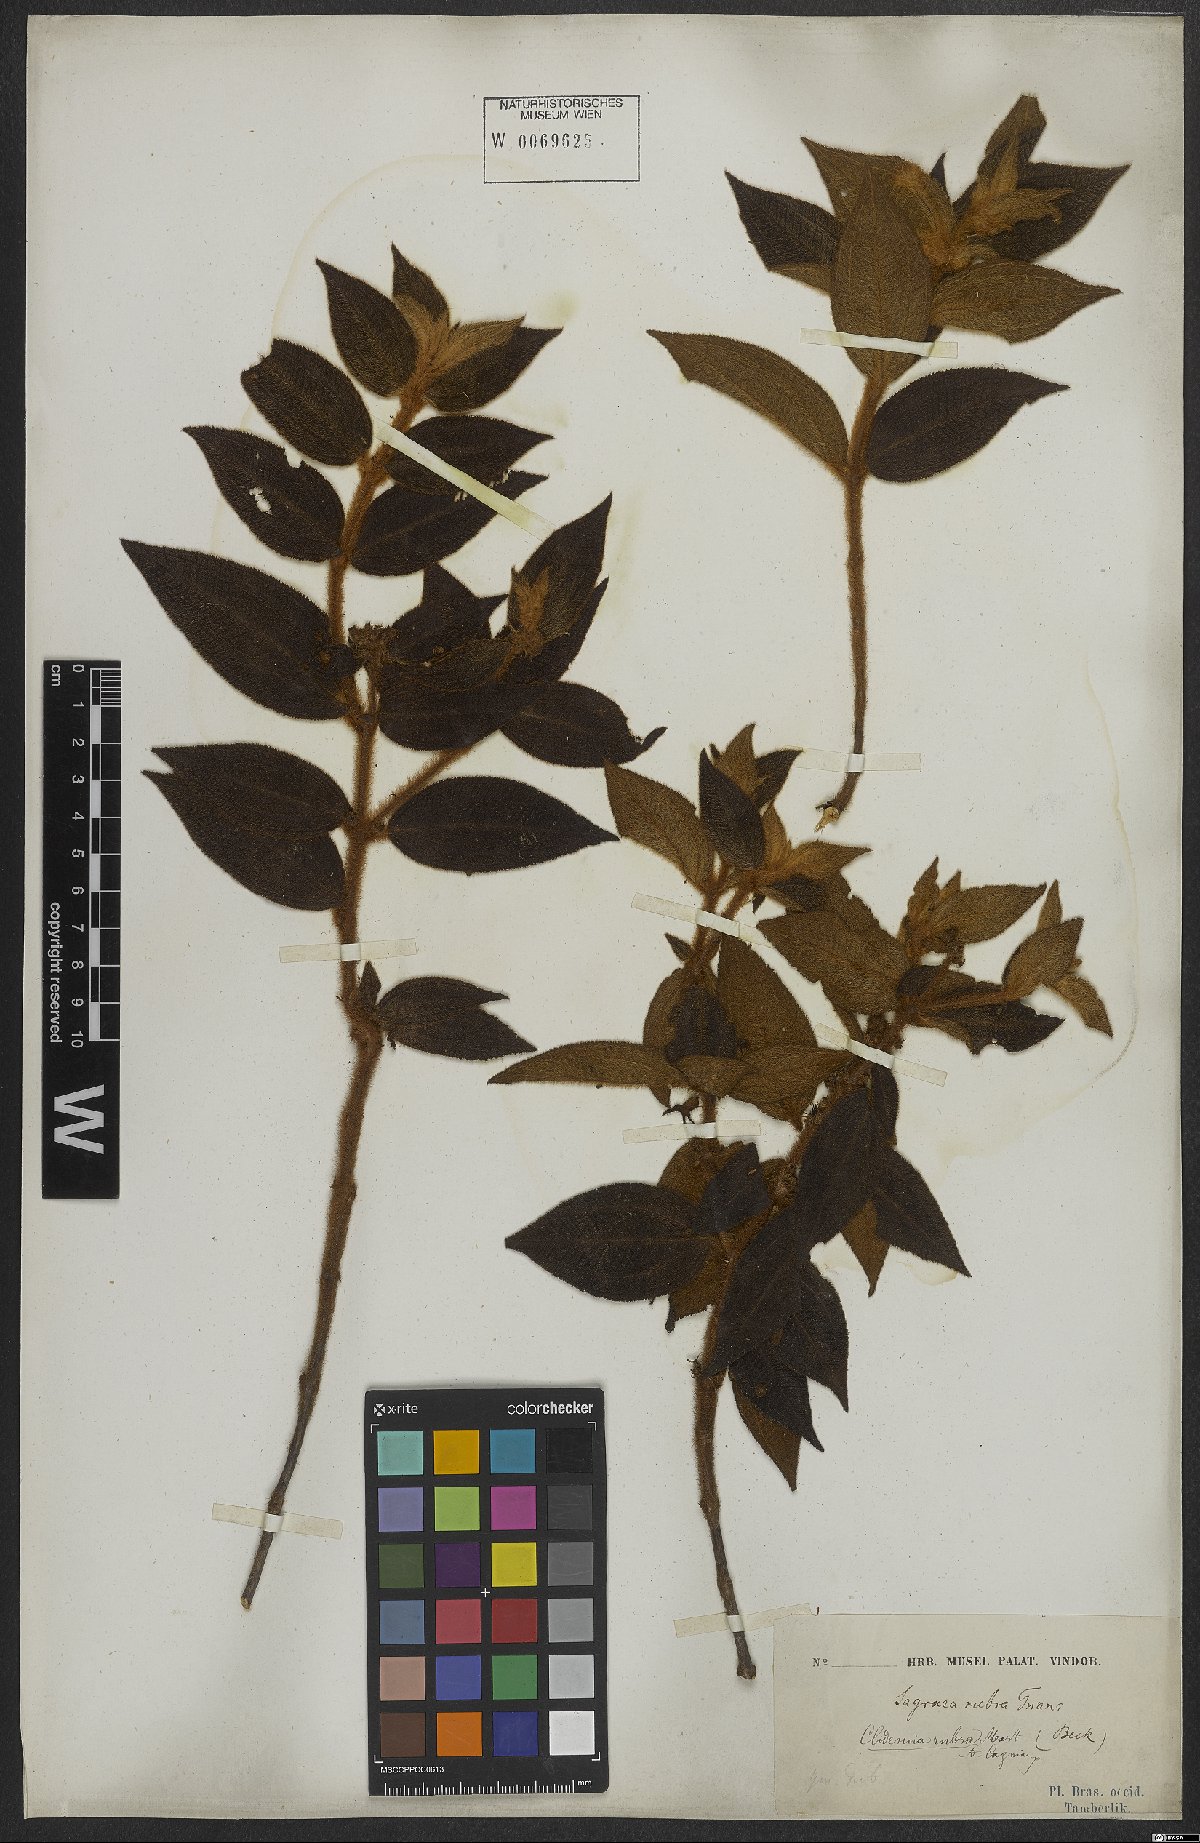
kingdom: Plantae
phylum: Tracheophyta
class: Magnoliopsida
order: Myrtales
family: Melastomataceae
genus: Miconia
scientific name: Miconia rubra
